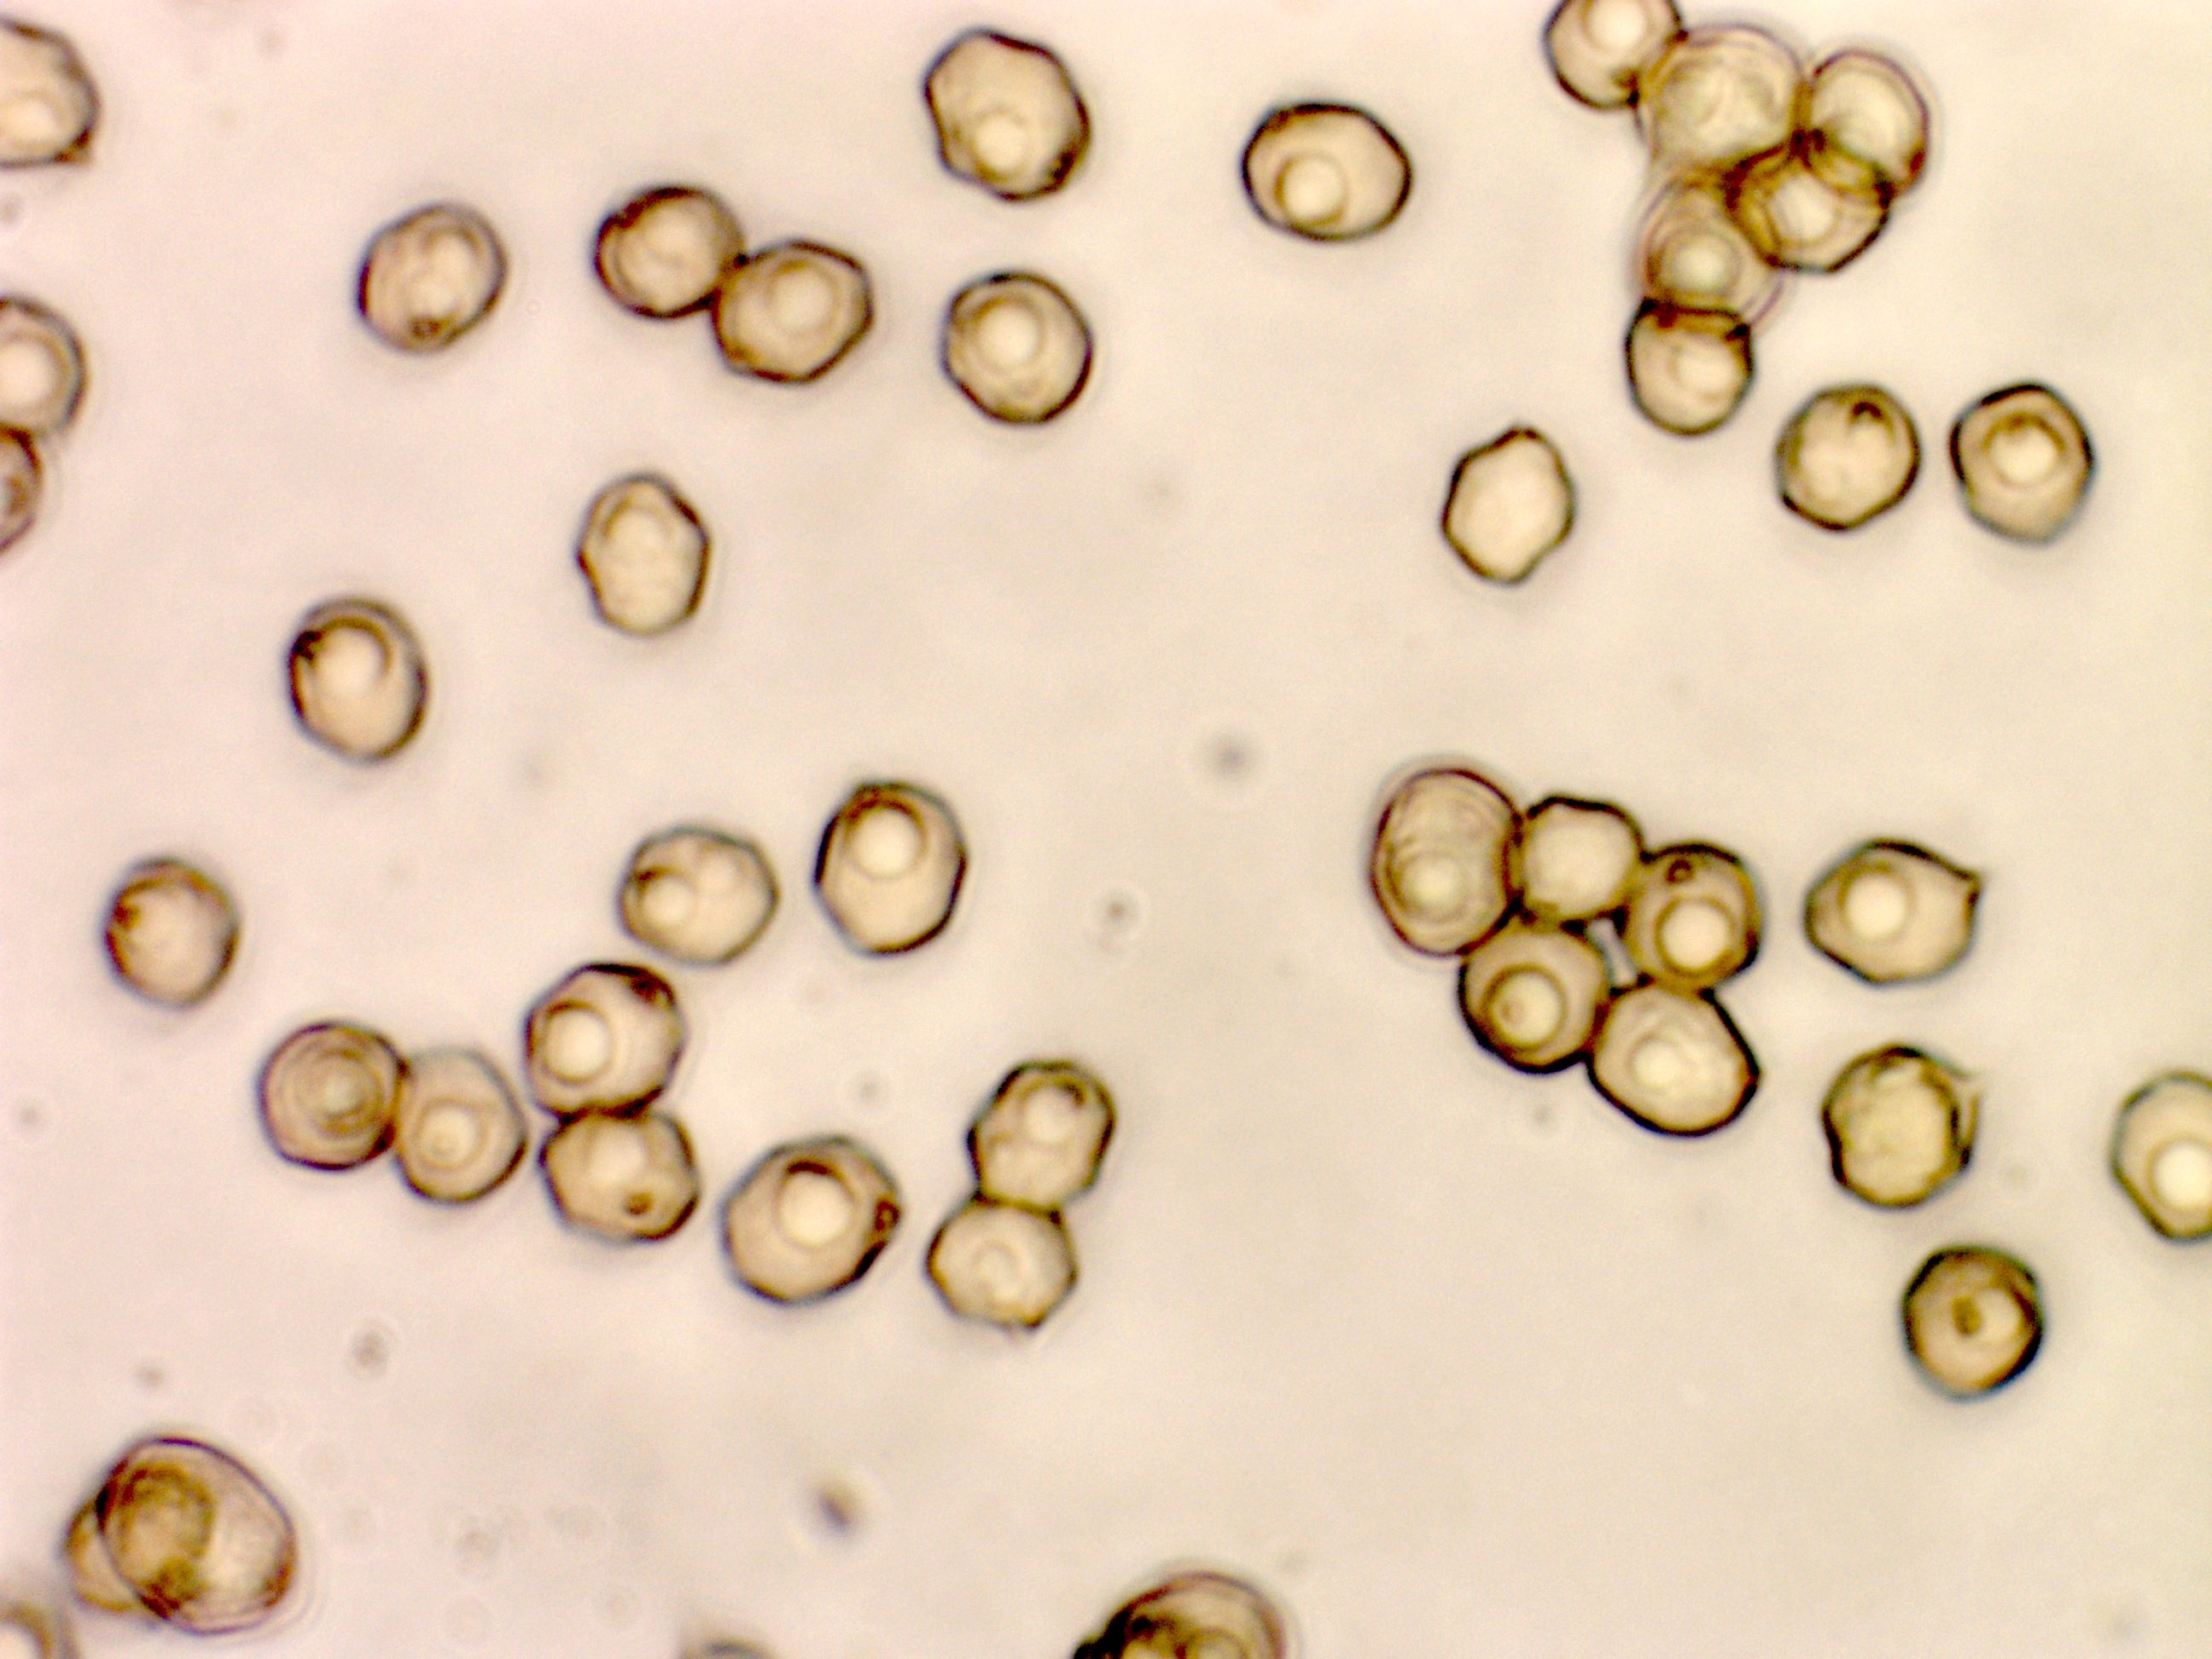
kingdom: Fungi
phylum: Basidiomycota
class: Agaricomycetes
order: Agaricales
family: Entolomataceae
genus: Entoloma
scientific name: Entoloma sericeum
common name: silkeglinsende rødblad
